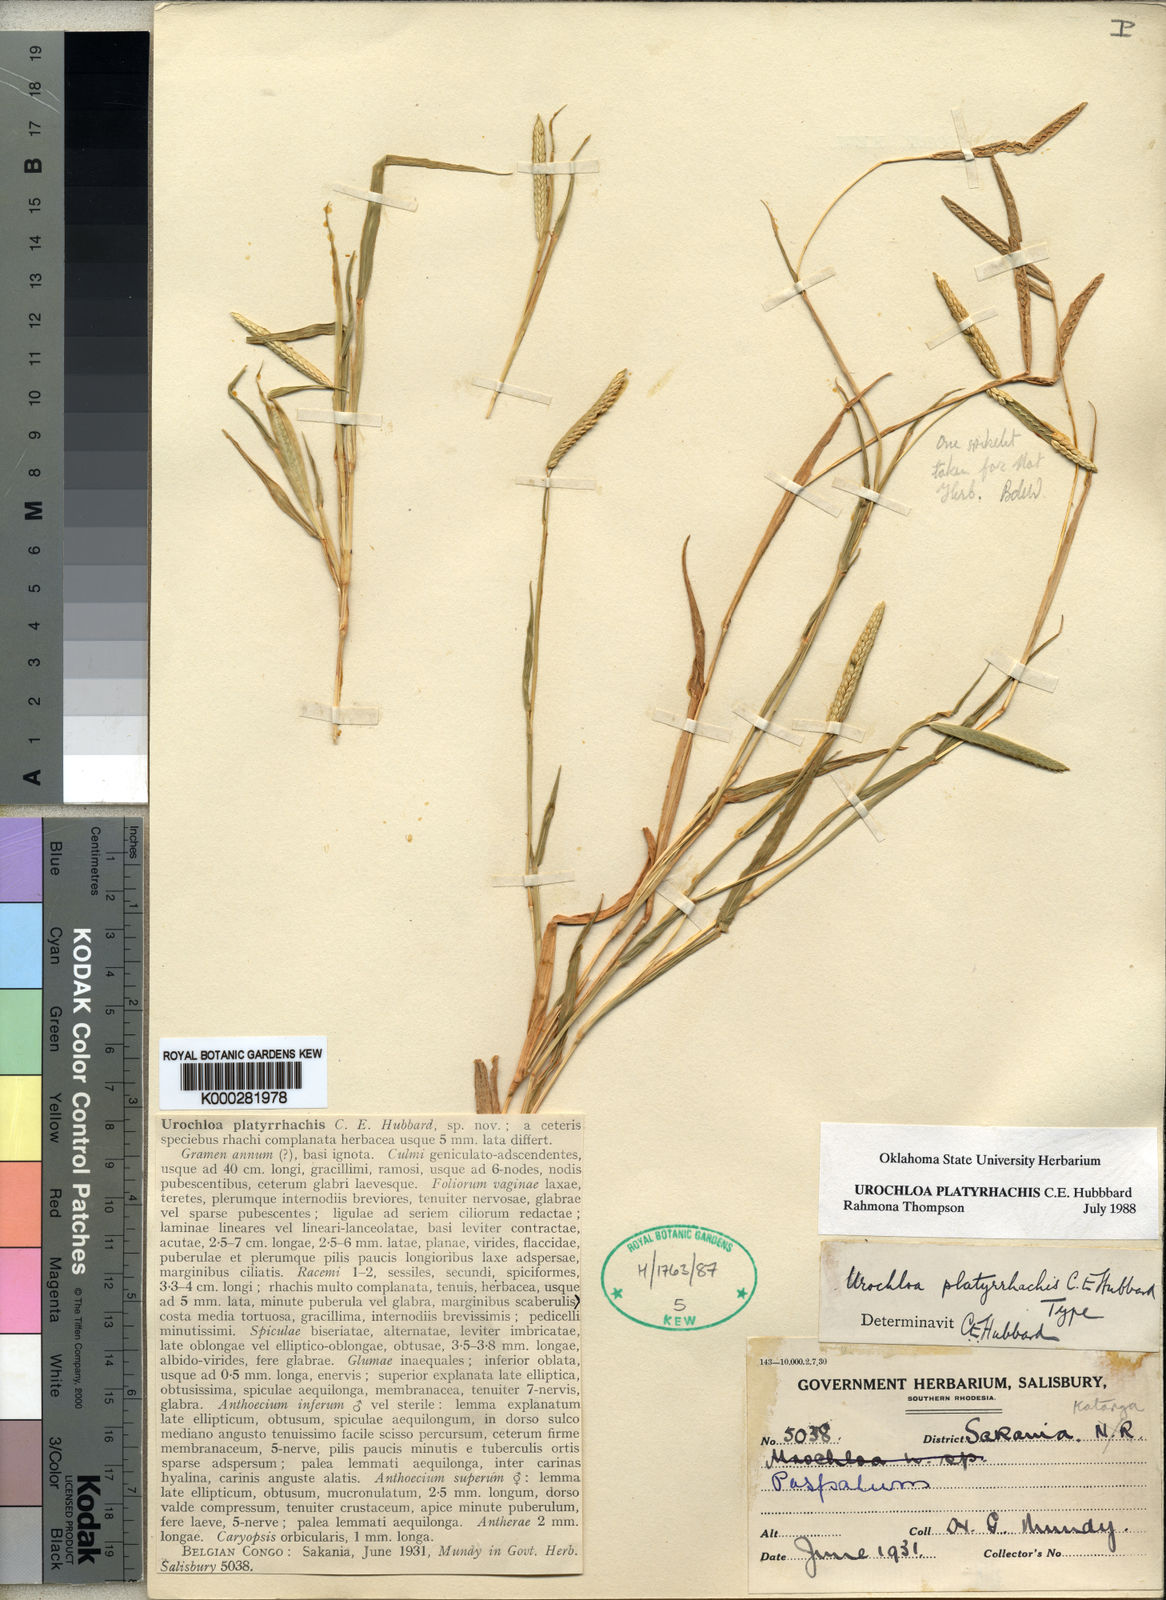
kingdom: Plantae
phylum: Tracheophyta
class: Liliopsida
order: Poales
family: Poaceae
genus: Urochloa
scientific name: Urochloa platyrrhachis
